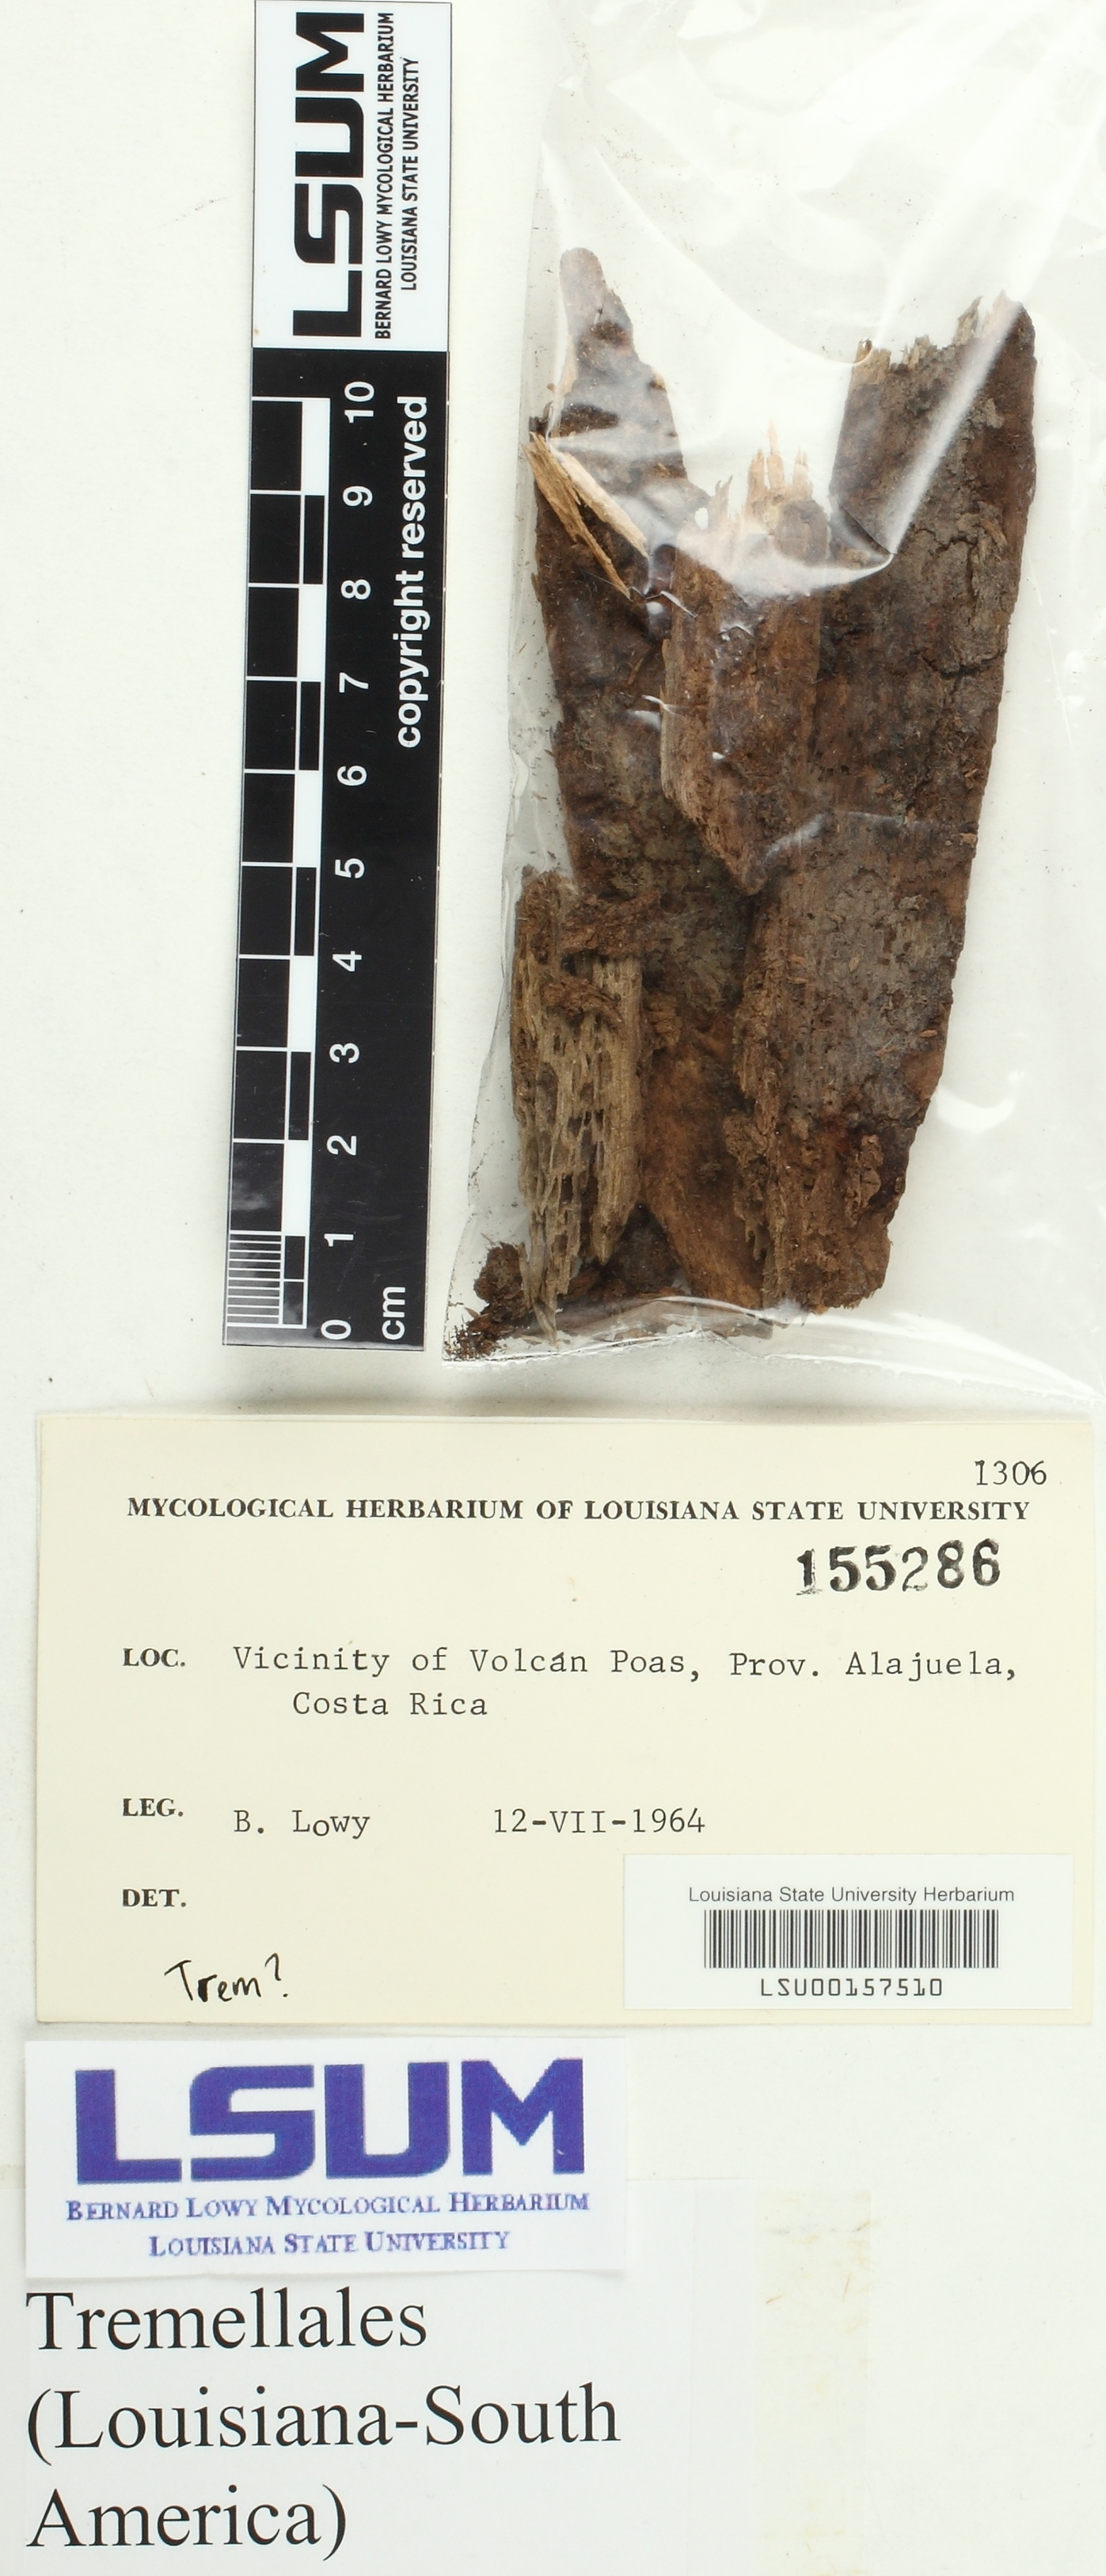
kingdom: Fungi
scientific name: Fungi
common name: Fungi
